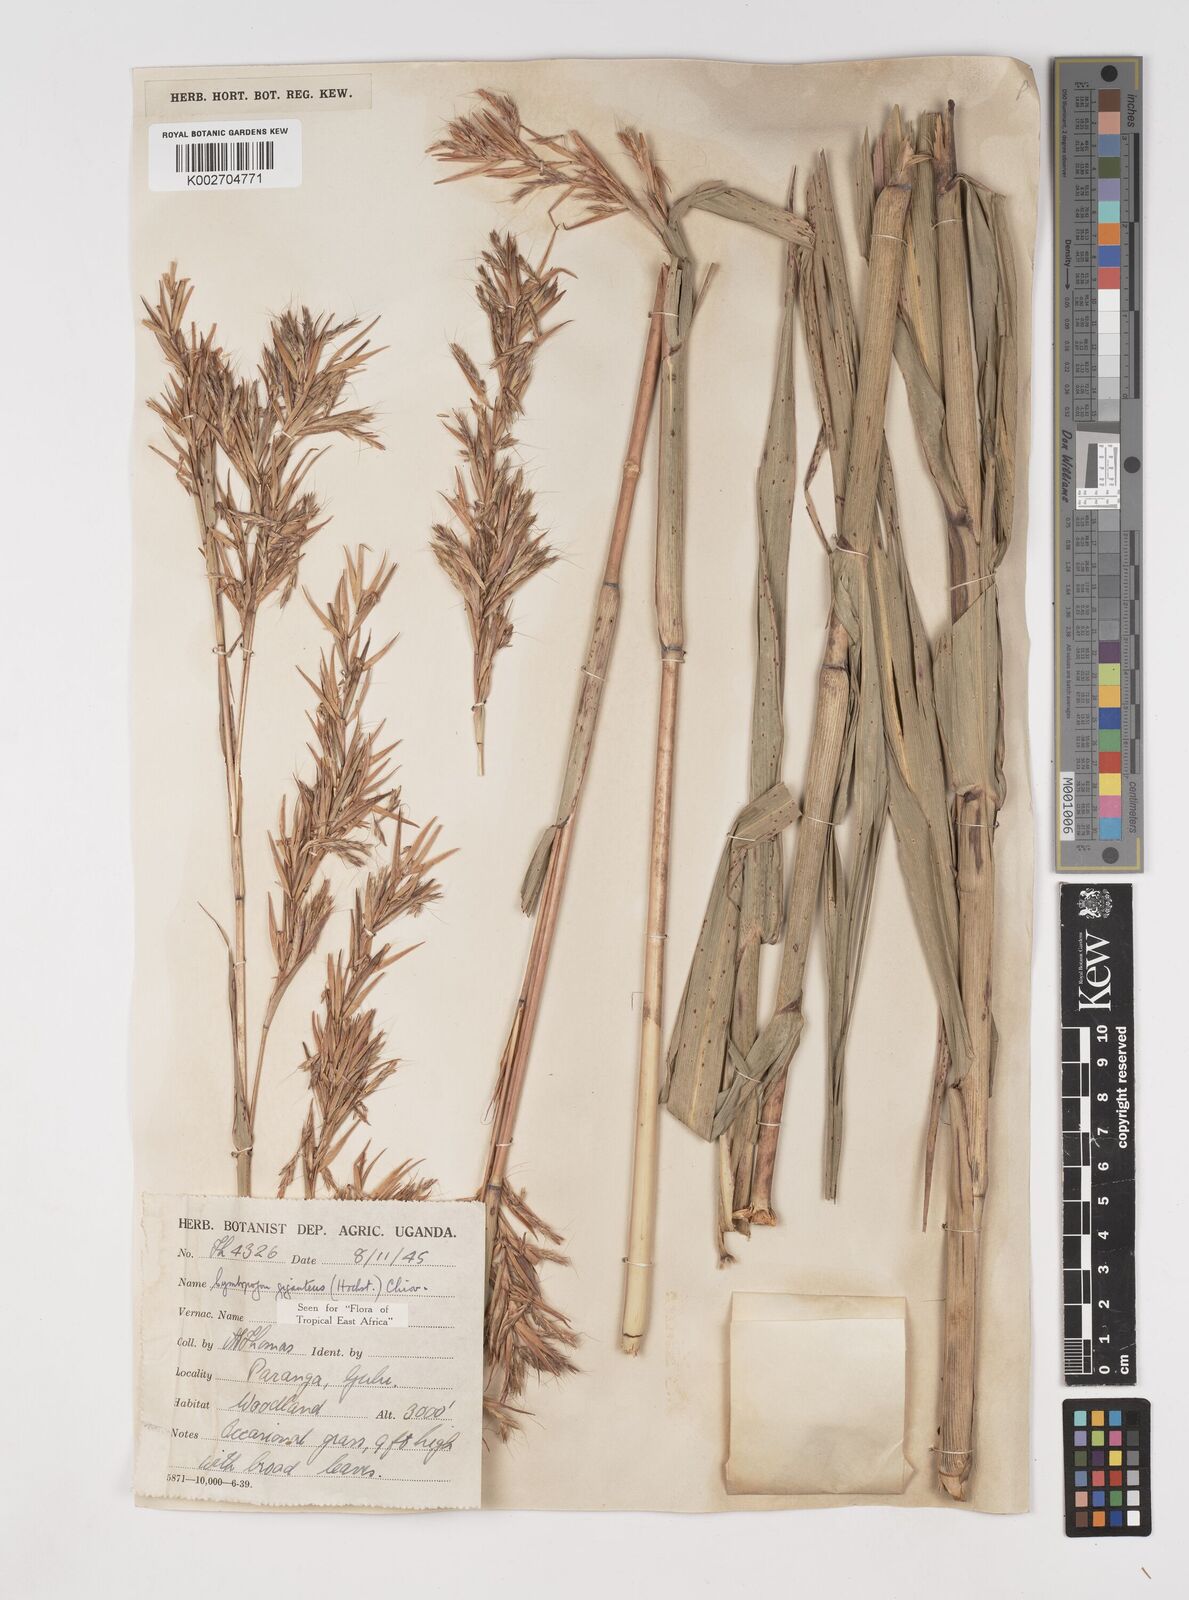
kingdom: Plantae
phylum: Tracheophyta
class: Liliopsida
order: Poales
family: Poaceae
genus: Cymbopogon
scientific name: Cymbopogon giganteus
